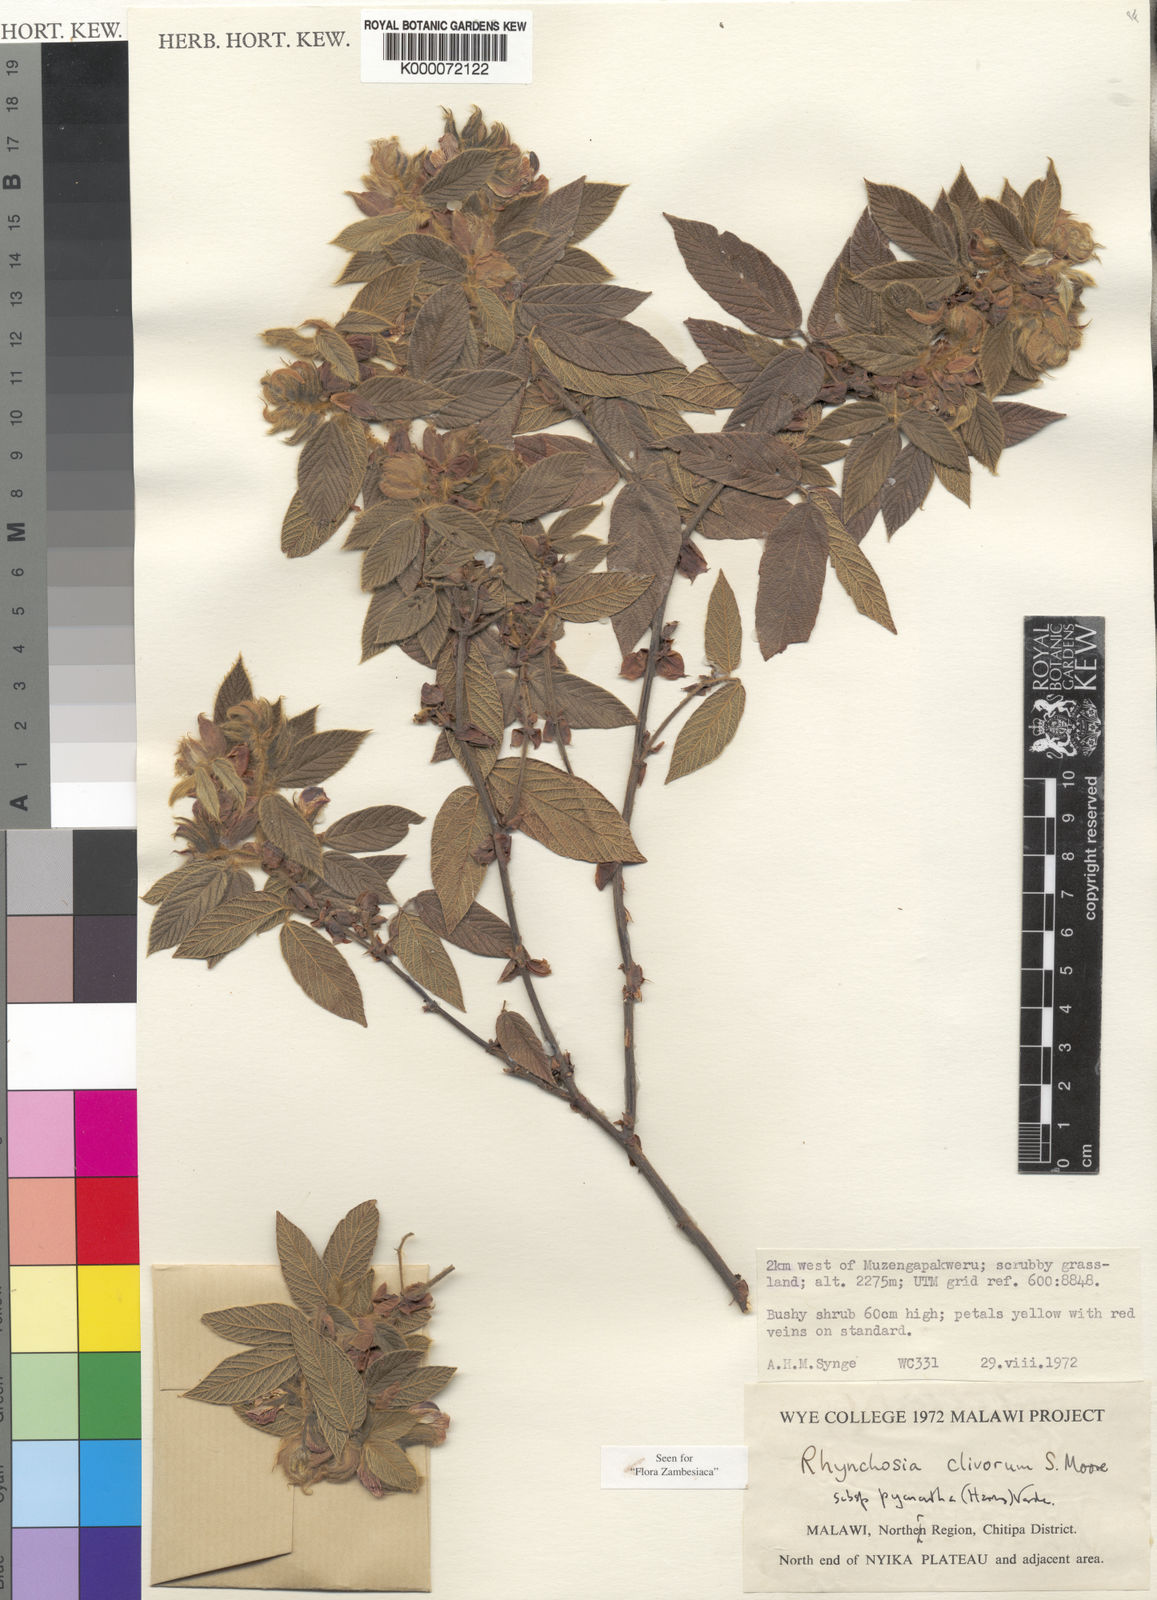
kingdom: Plantae
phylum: Tracheophyta
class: Magnoliopsida
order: Fabales
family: Fabaceae
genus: Rhynchosia
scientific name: Rhynchosia clivorum
